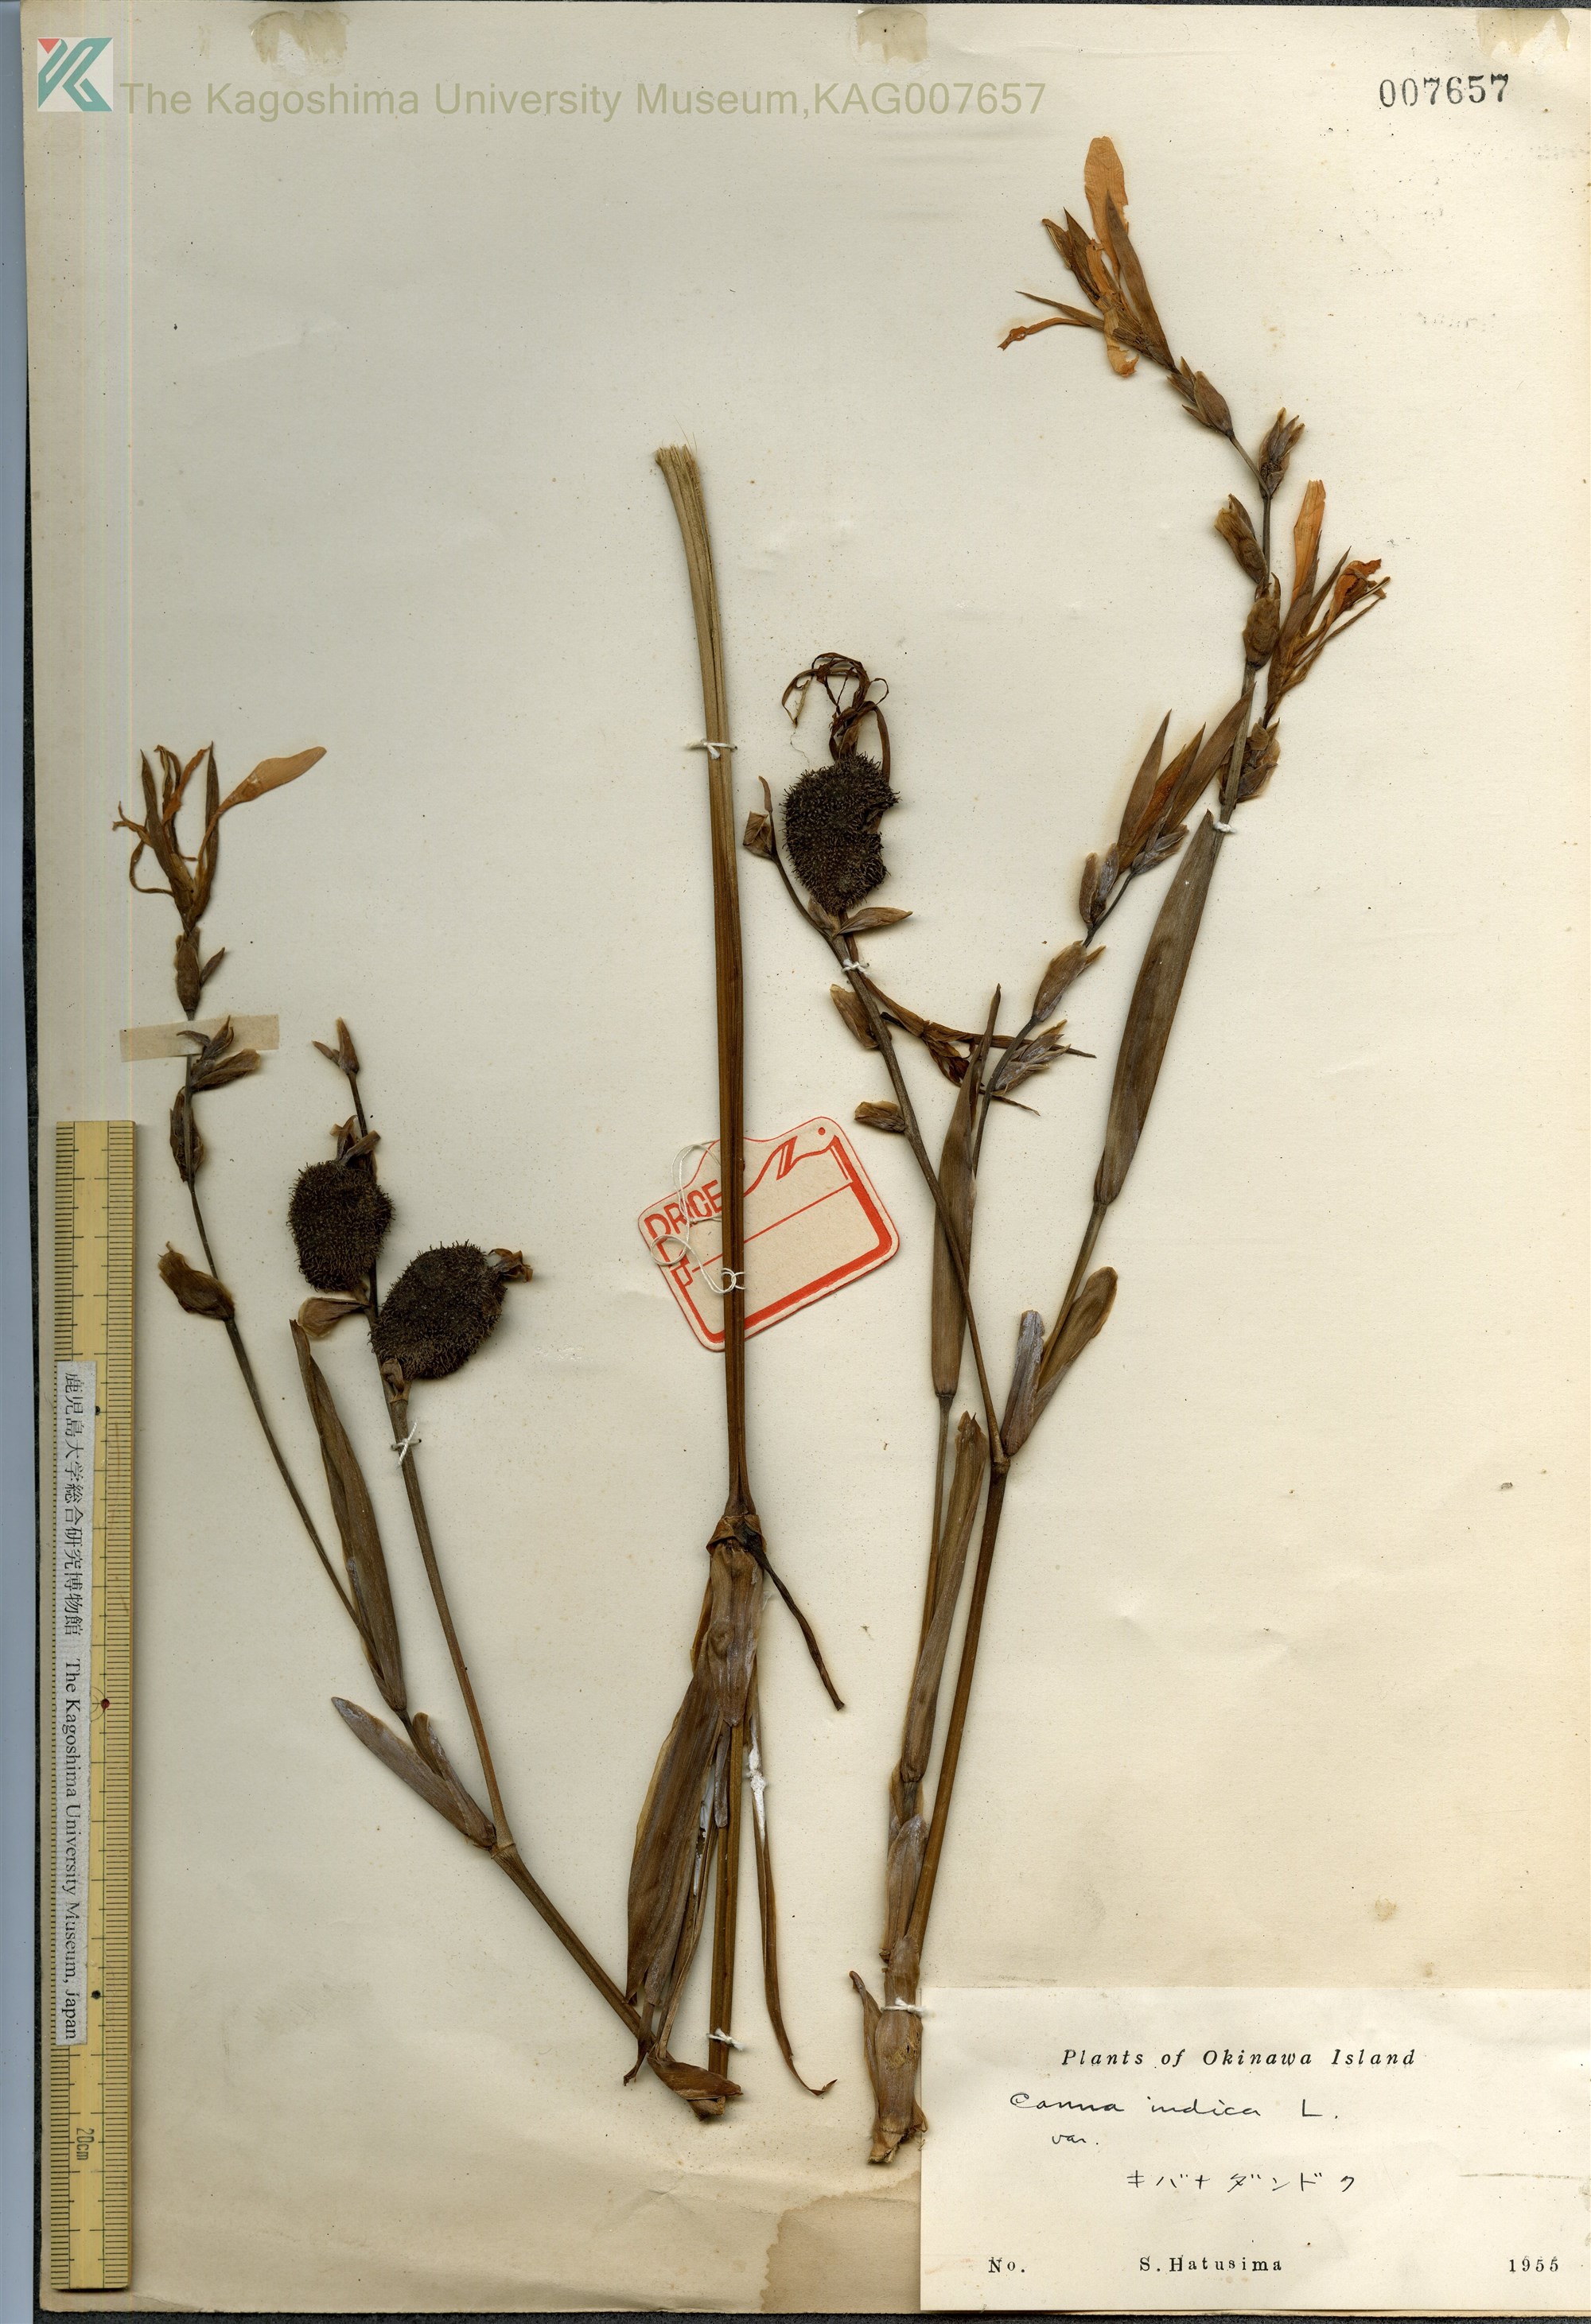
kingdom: Plantae
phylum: Tracheophyta
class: Liliopsida
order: Zingiberales
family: Cannaceae
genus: Canna
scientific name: Canna indica
